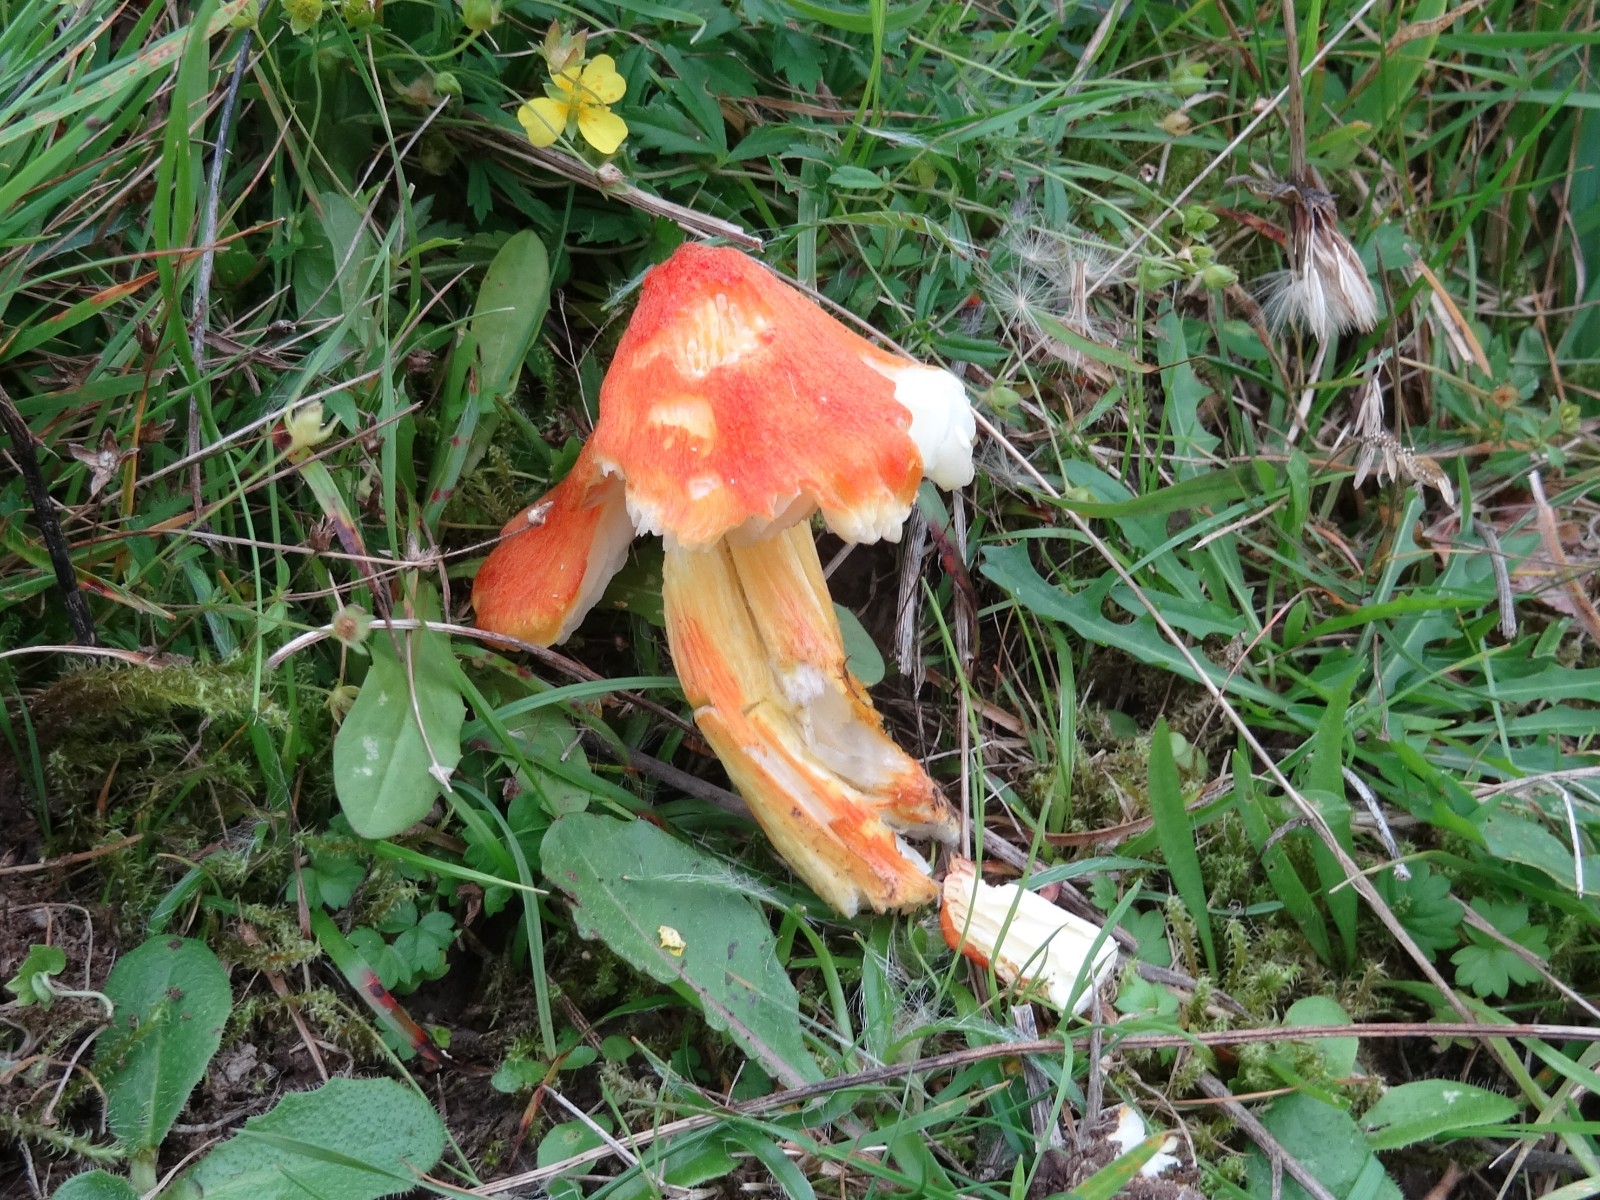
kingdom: Fungi
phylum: Basidiomycota
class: Agaricomycetes
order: Agaricales
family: Hygrophoraceae
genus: Hygrocybe
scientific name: Hygrocybe intermedia
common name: trævlet vokshat
